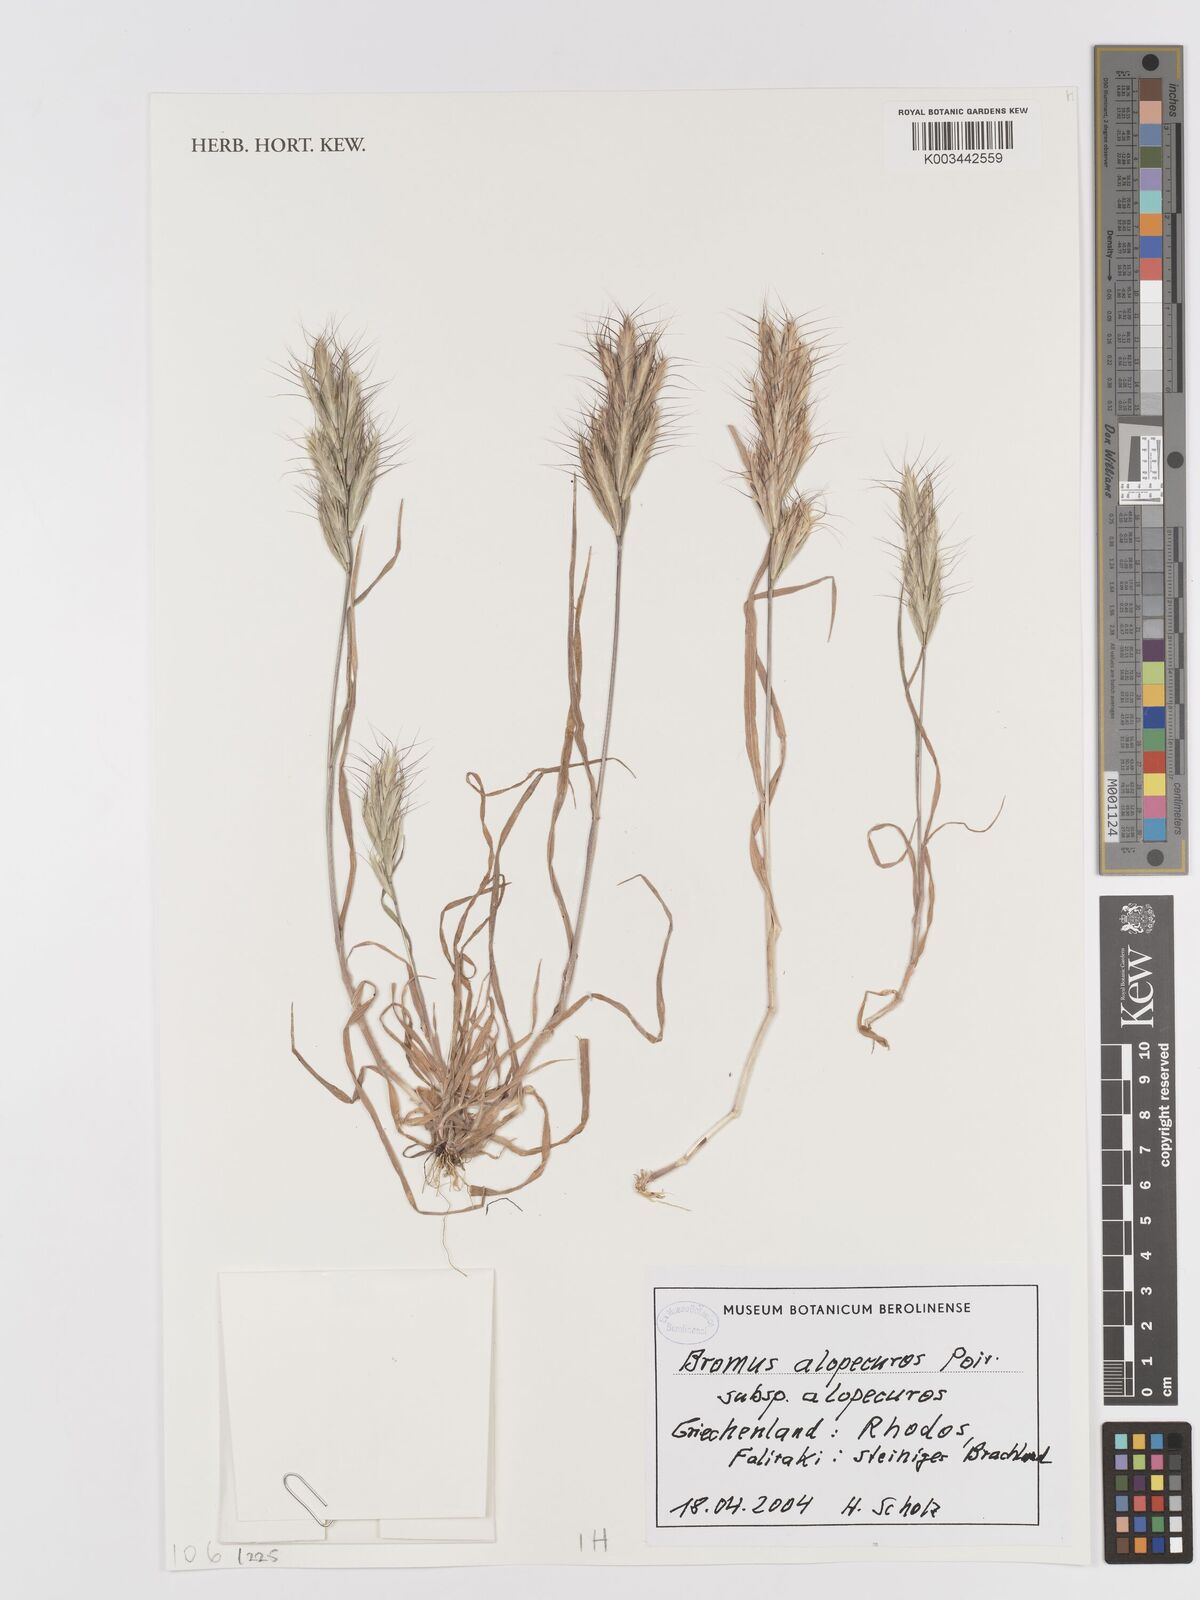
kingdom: Plantae
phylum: Tracheophyta
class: Liliopsida
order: Poales
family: Poaceae
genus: Bromus
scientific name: Bromus alopecuros
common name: Weedy brome
